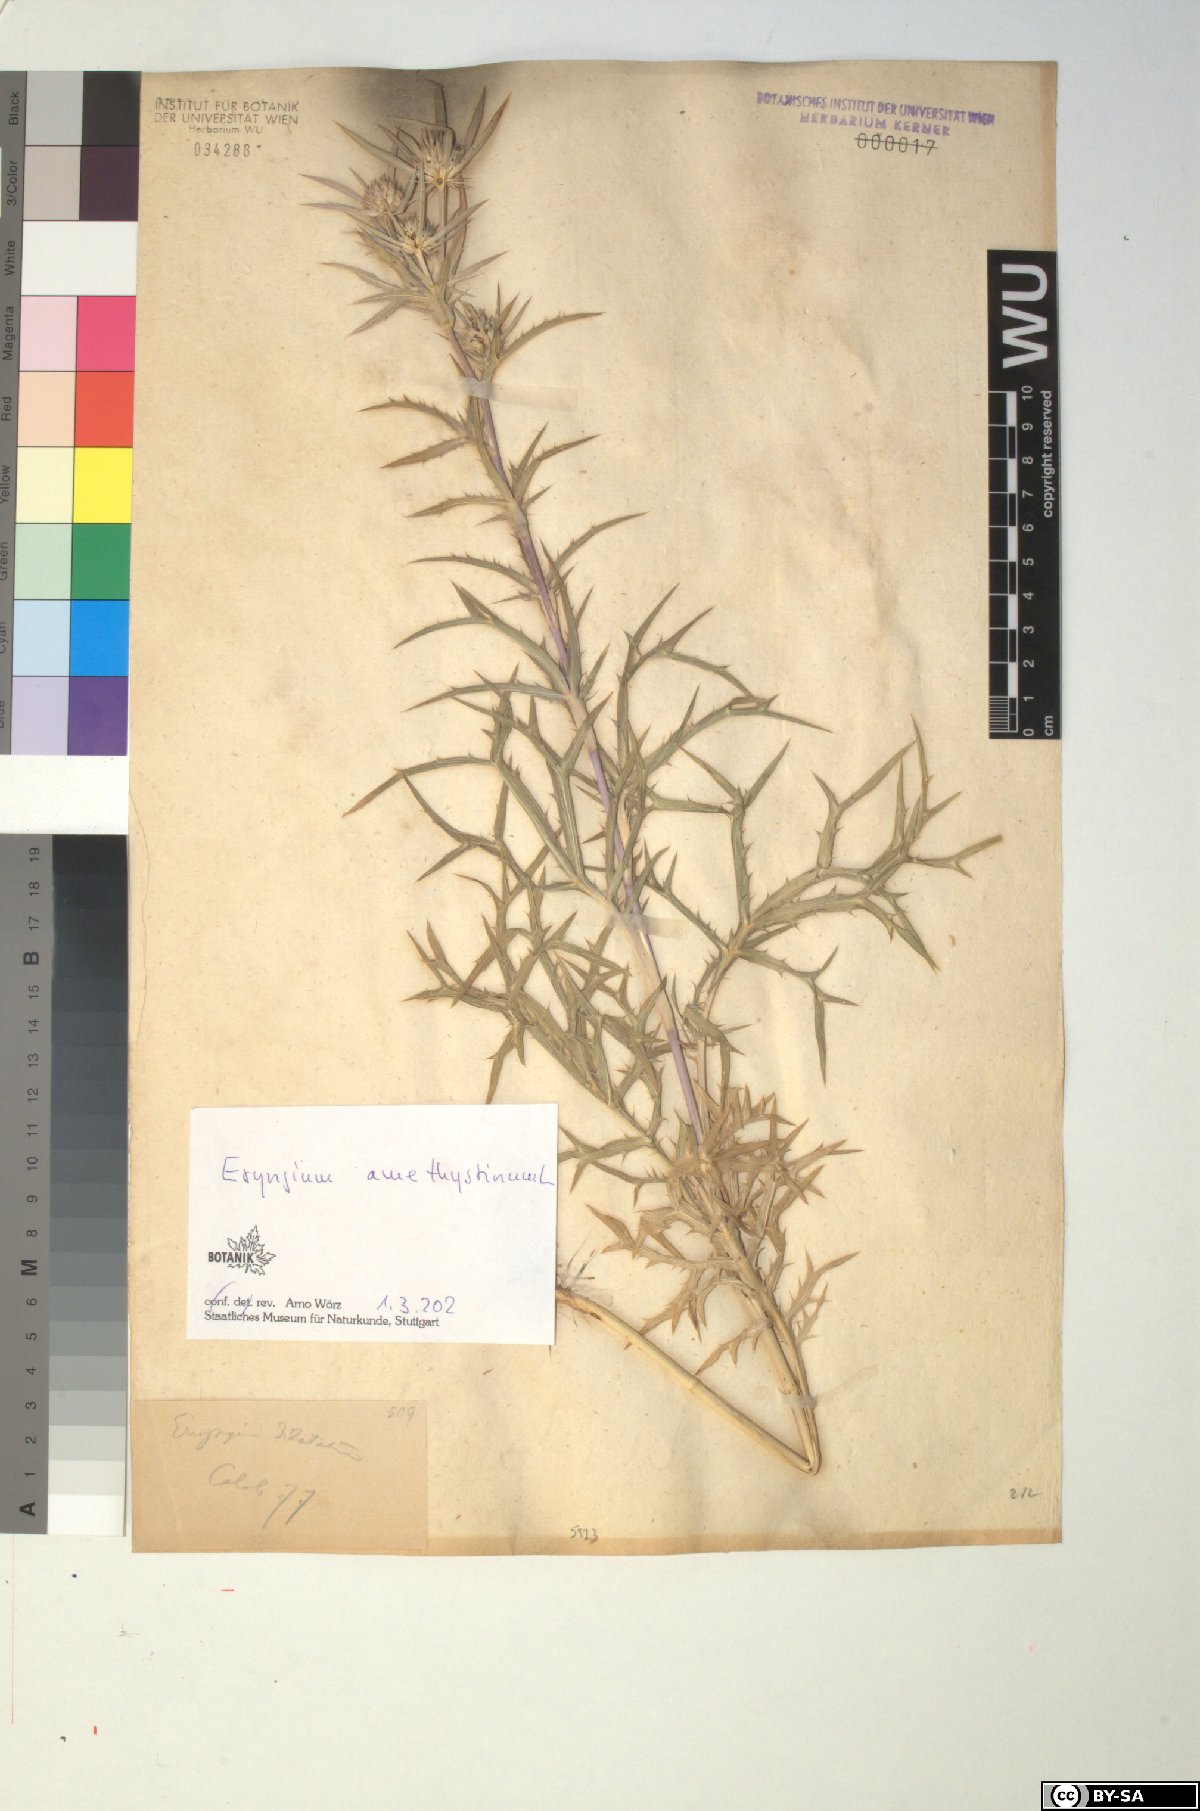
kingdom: Plantae
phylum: Tracheophyta
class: Magnoliopsida
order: Apiales
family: Apiaceae
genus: Eryngium
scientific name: Eryngium amethystinum
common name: Amethyst eryngo
